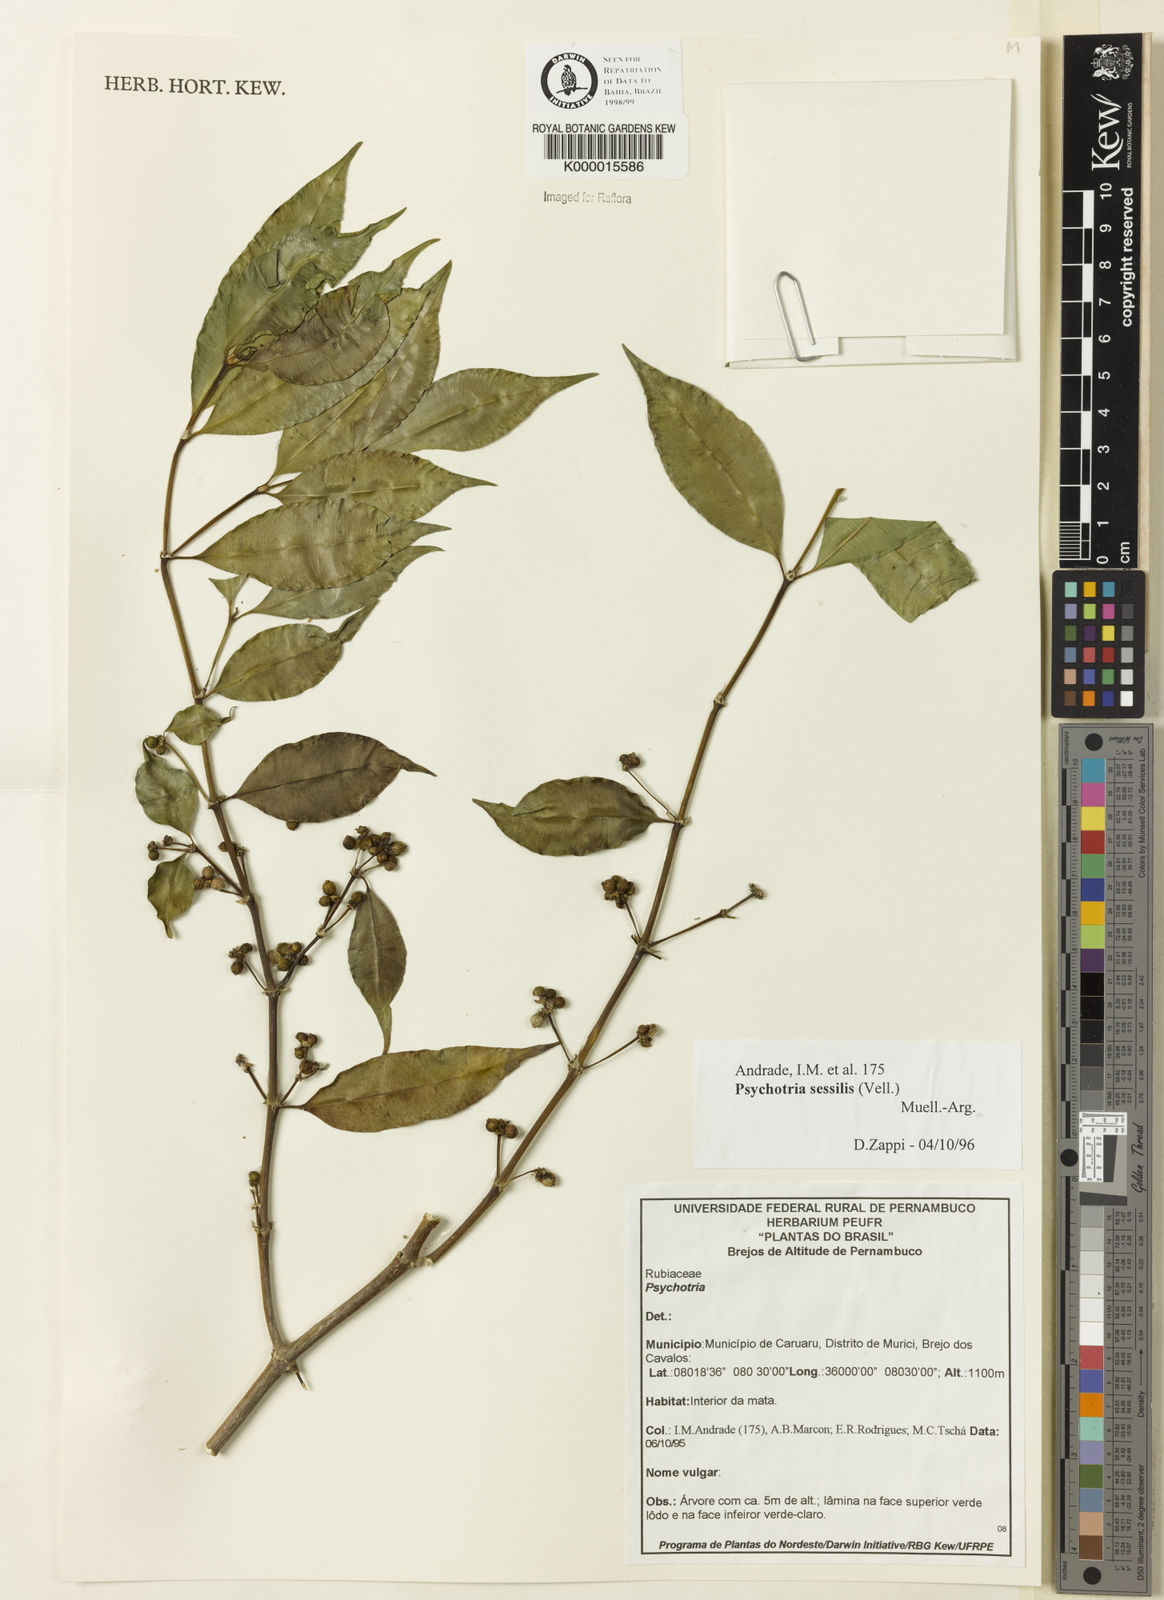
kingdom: Plantae
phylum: Tracheophyta
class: Magnoliopsida
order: Gentianales
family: Rubiaceae
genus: Psychotria
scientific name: Psychotria
